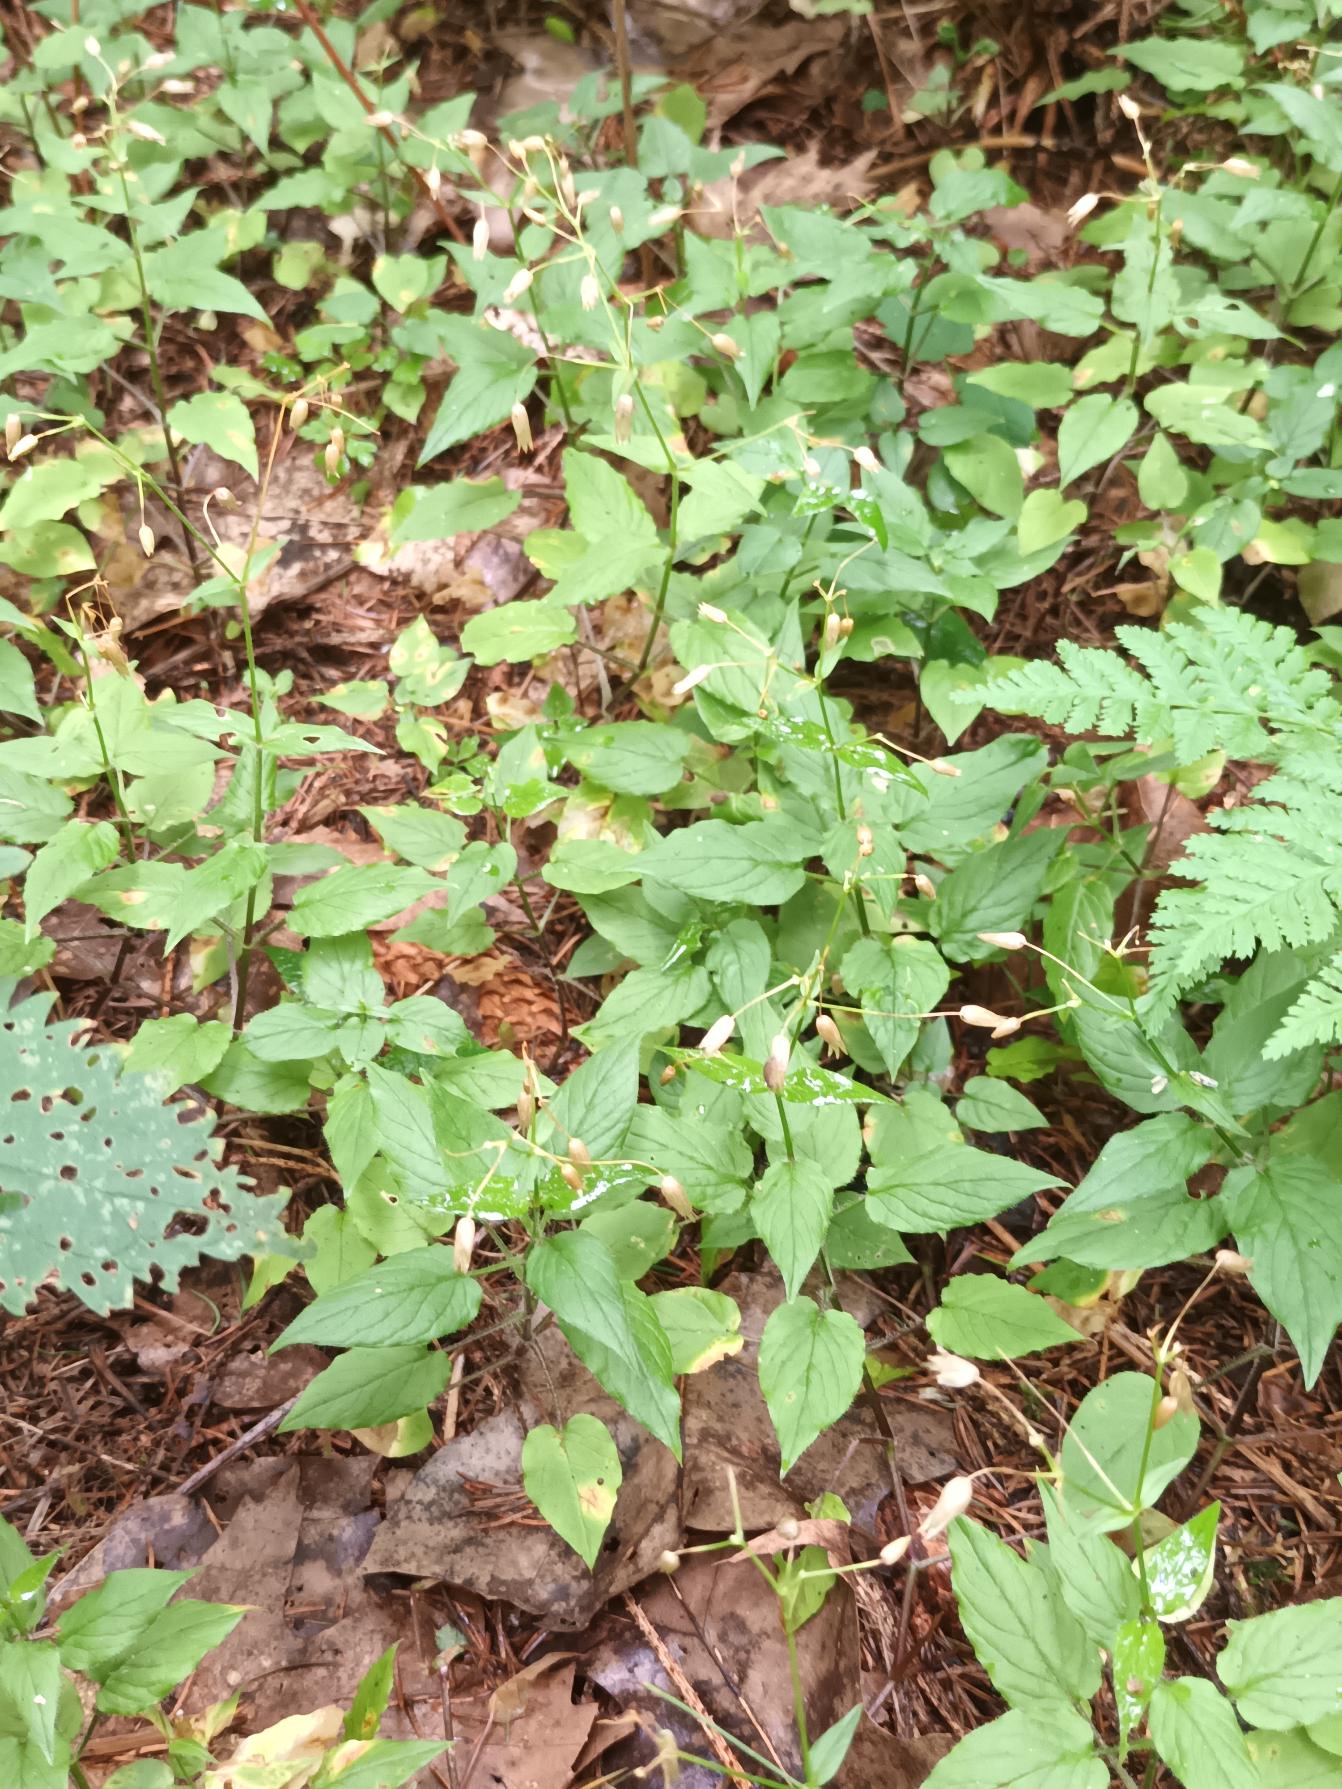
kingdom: Plantae
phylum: Tracheophyta
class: Magnoliopsida
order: Caryophyllales
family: Caryophyllaceae
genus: Stellaria
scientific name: Stellaria nemorum
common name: Lund-fladstjerne
